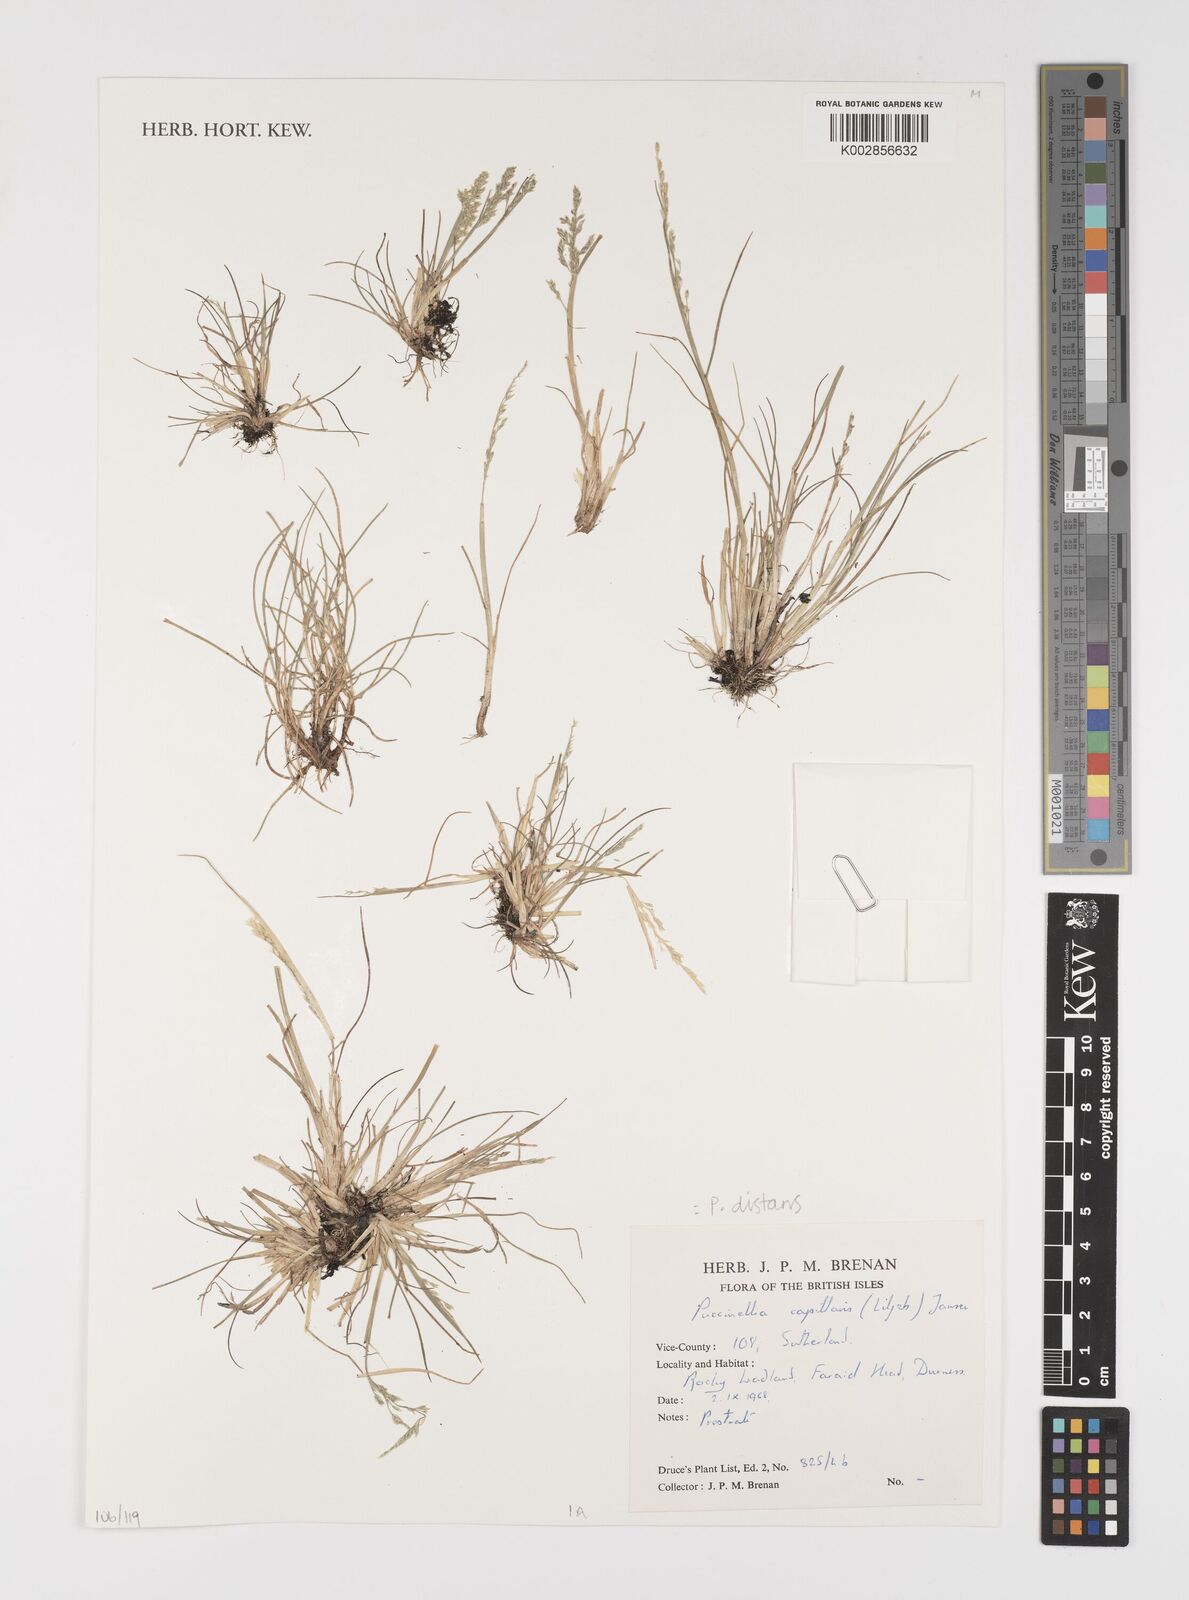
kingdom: Plantae
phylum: Tracheophyta
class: Liliopsida
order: Poales
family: Poaceae
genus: Puccinellia
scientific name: Puccinellia distans
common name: Weeping alkaligrass
